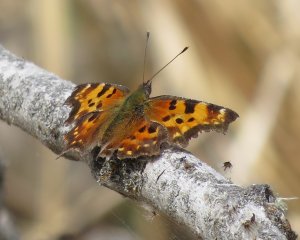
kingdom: Animalia
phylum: Arthropoda
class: Insecta
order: Lepidoptera
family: Nymphalidae
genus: Polygonia
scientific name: Polygonia faunus
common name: Green Comma
